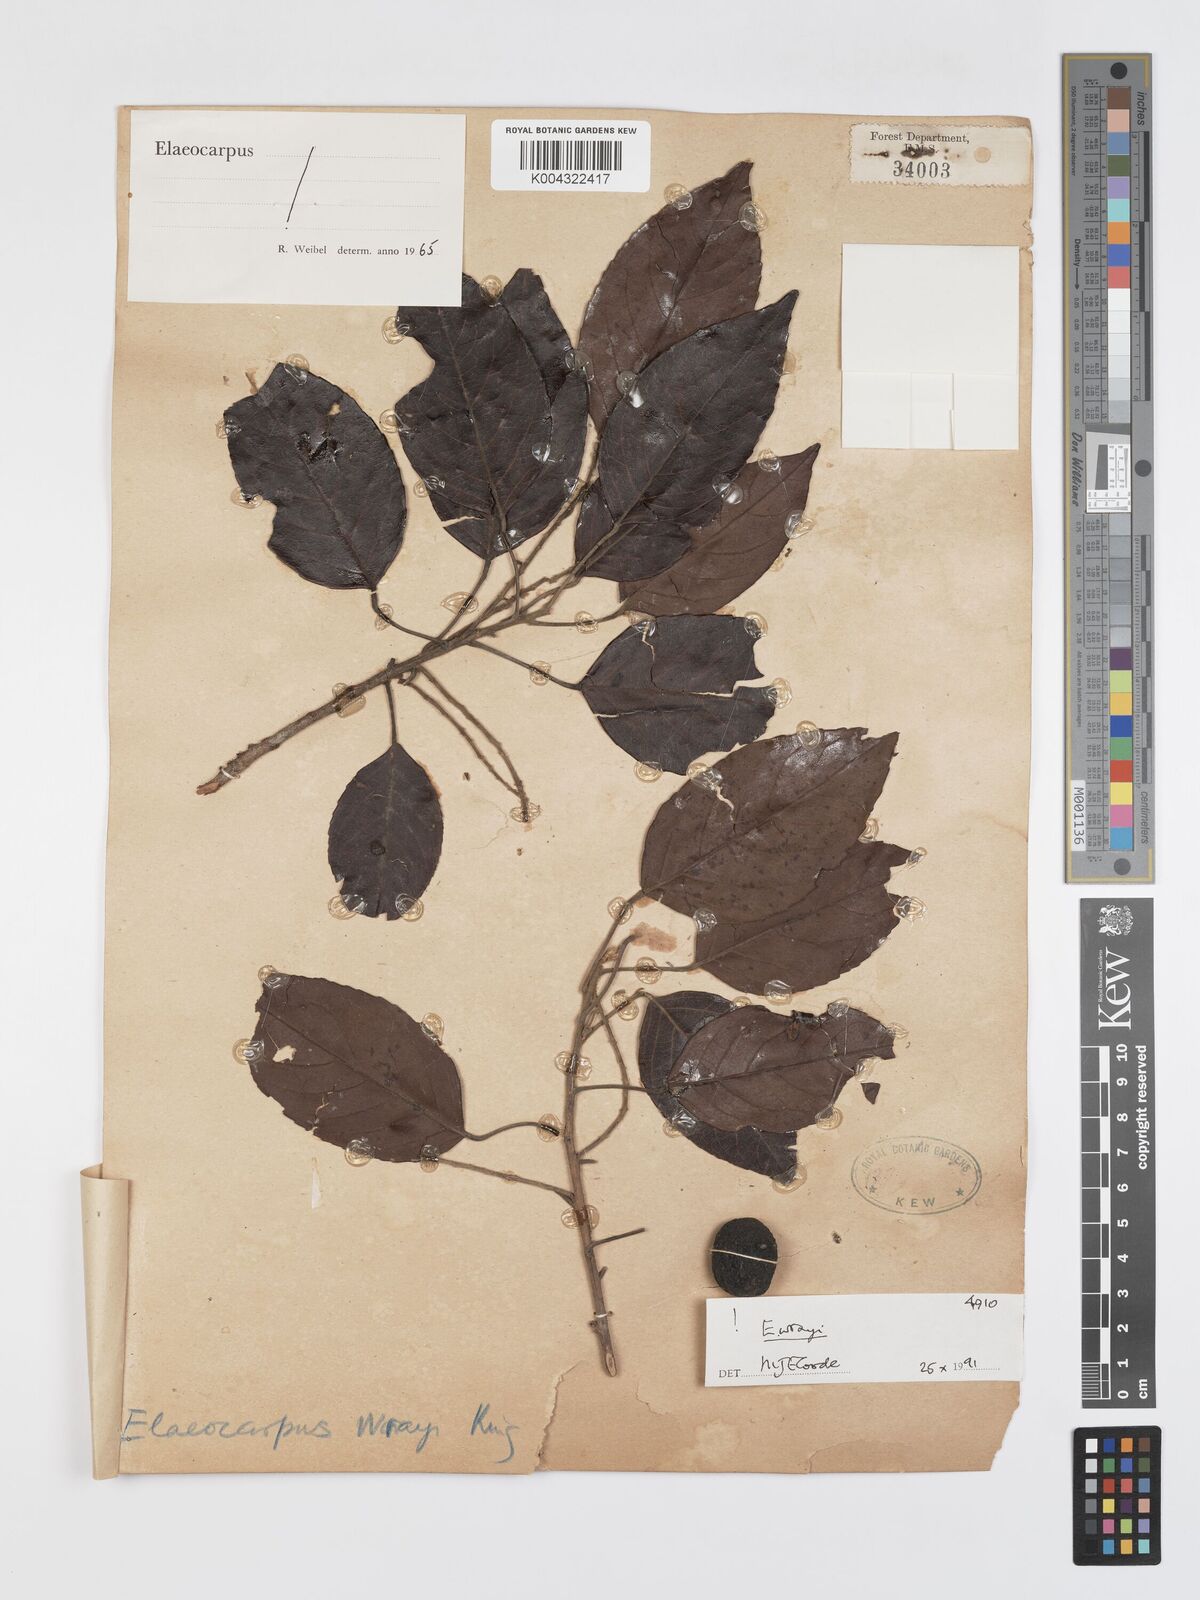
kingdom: Plantae
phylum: Tracheophyta
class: Magnoliopsida
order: Oxalidales
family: Elaeocarpaceae
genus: Elaeocarpus
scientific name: Elaeocarpus nitidus
